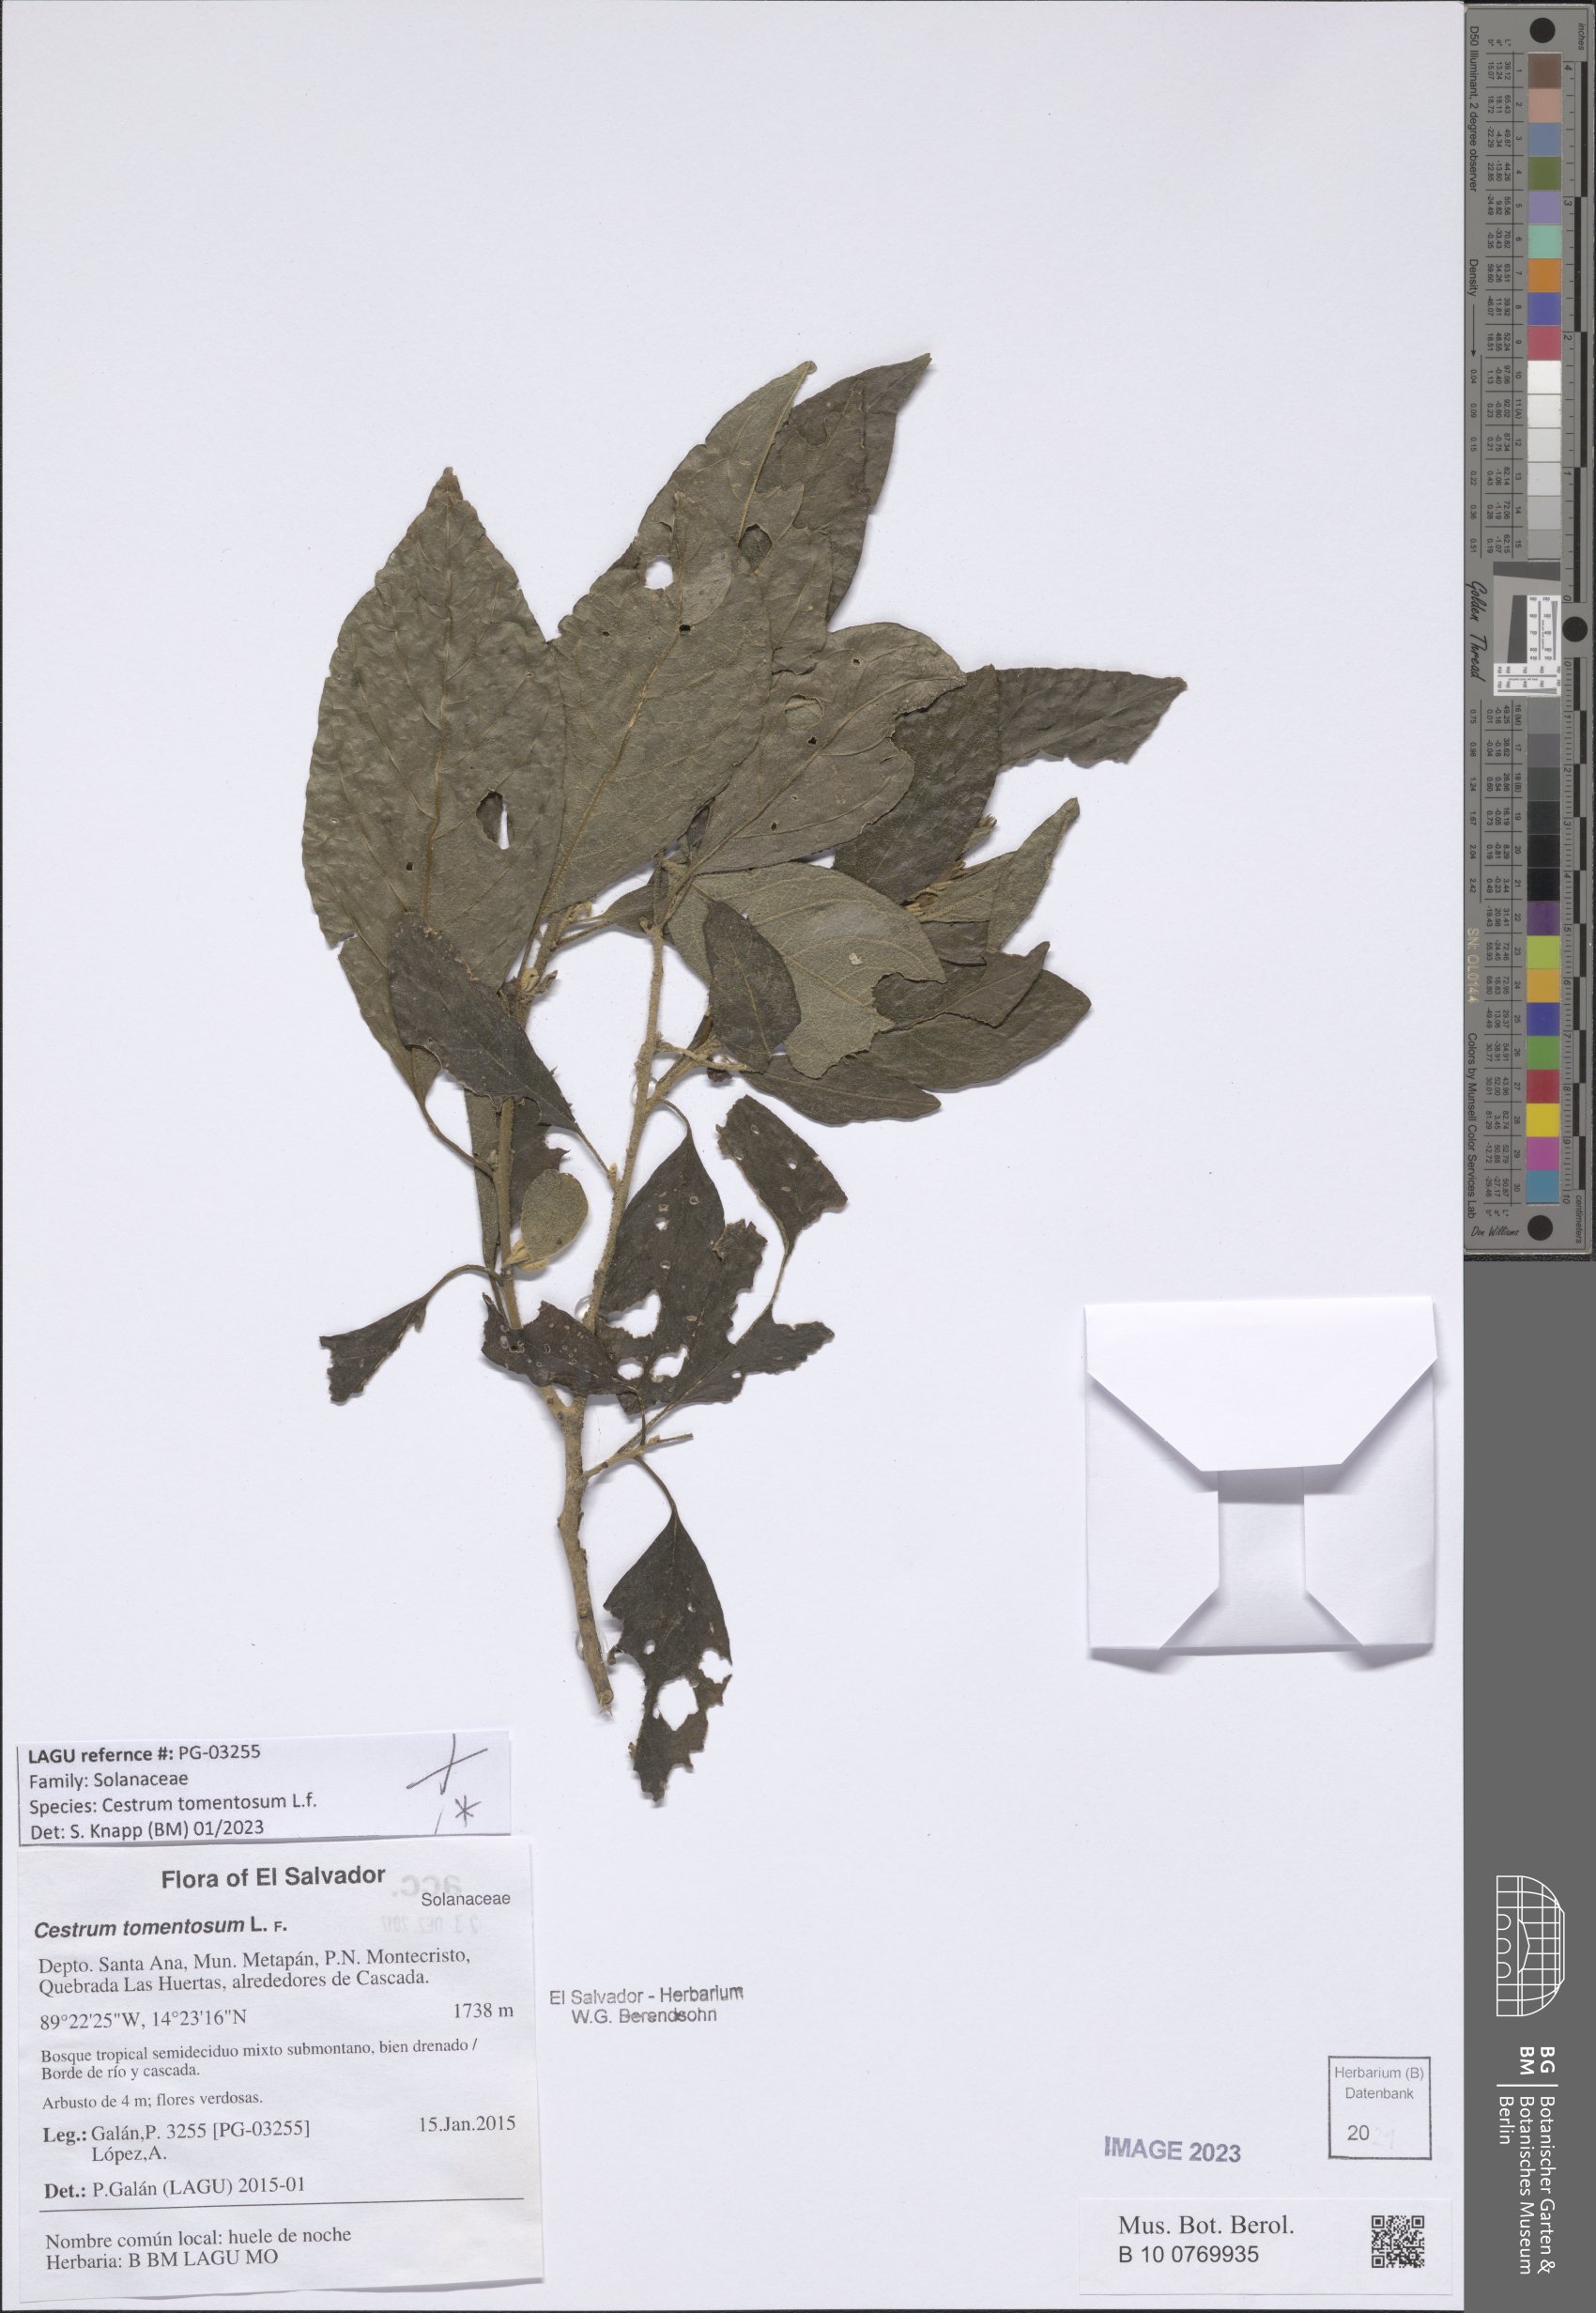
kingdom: Plantae
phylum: Tracheophyta
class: Magnoliopsida
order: Solanales
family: Solanaceae
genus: Cestrum
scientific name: Cestrum tomentosum
